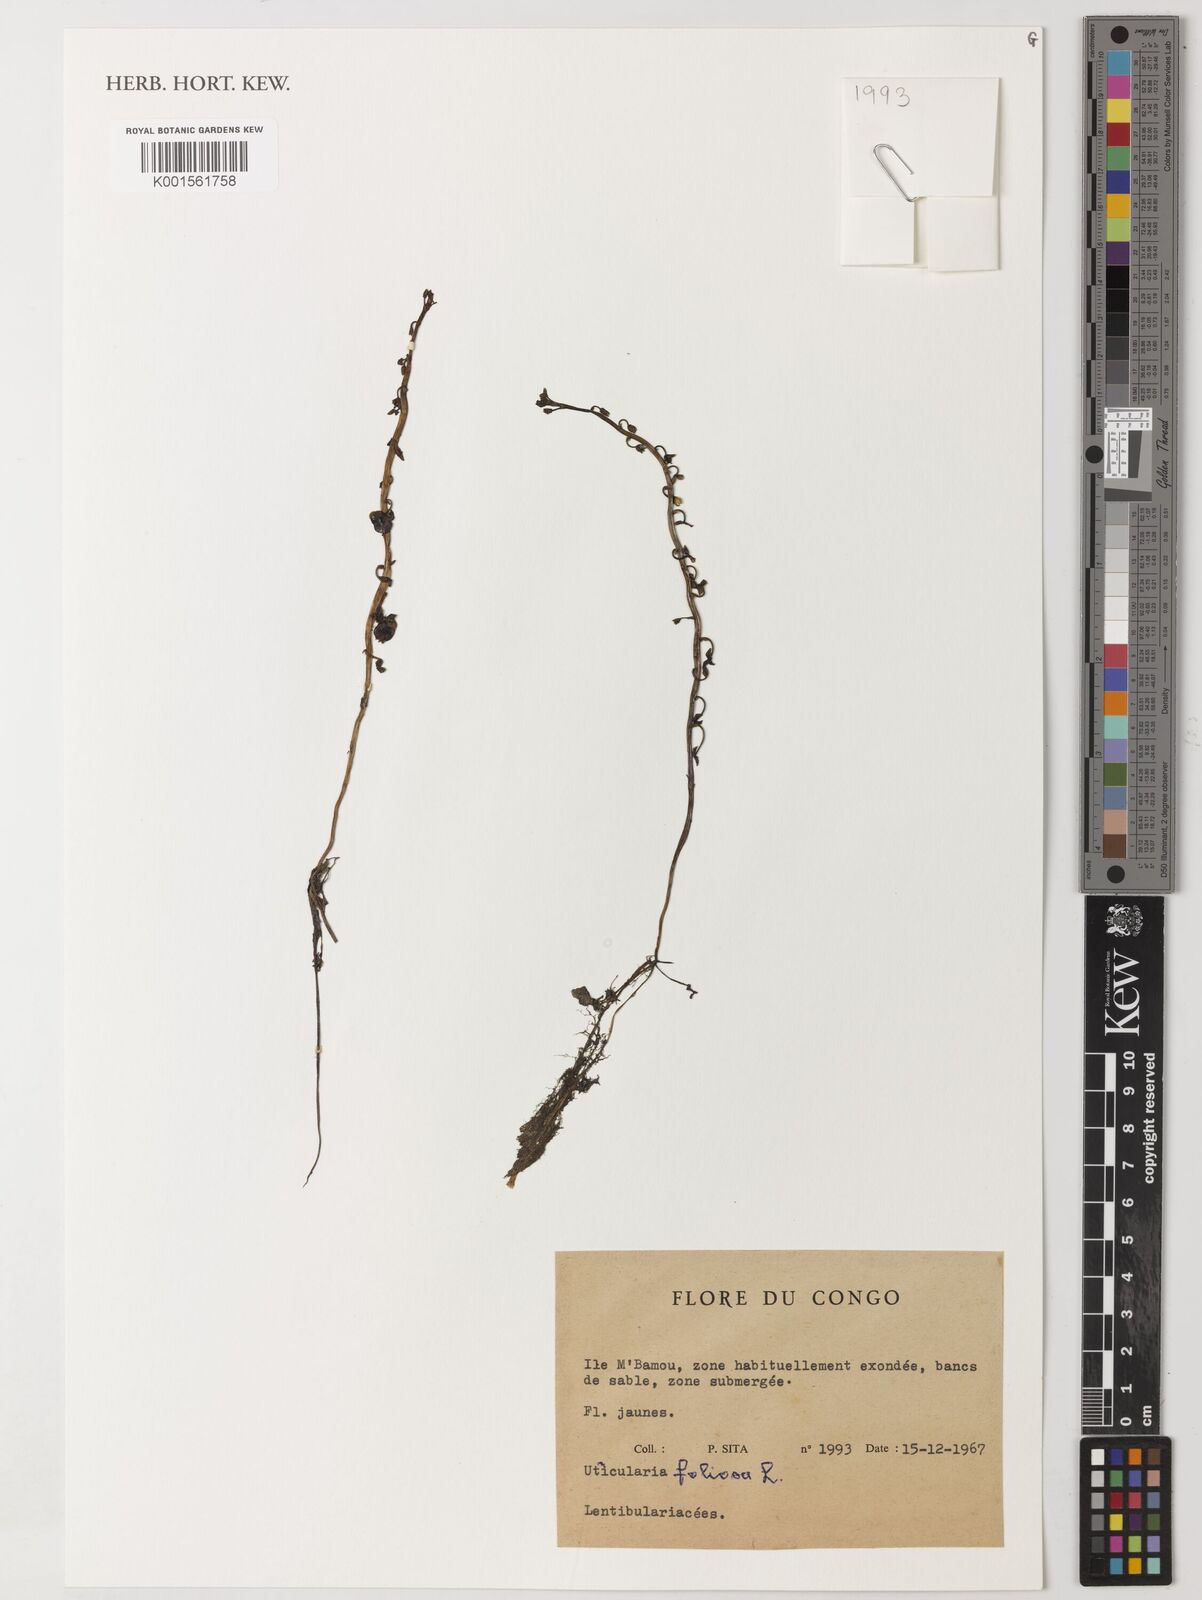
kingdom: Plantae
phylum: Tracheophyta
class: Magnoliopsida
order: Lamiales
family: Lentibulariaceae
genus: Utricularia
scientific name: Utricularia foliosa
